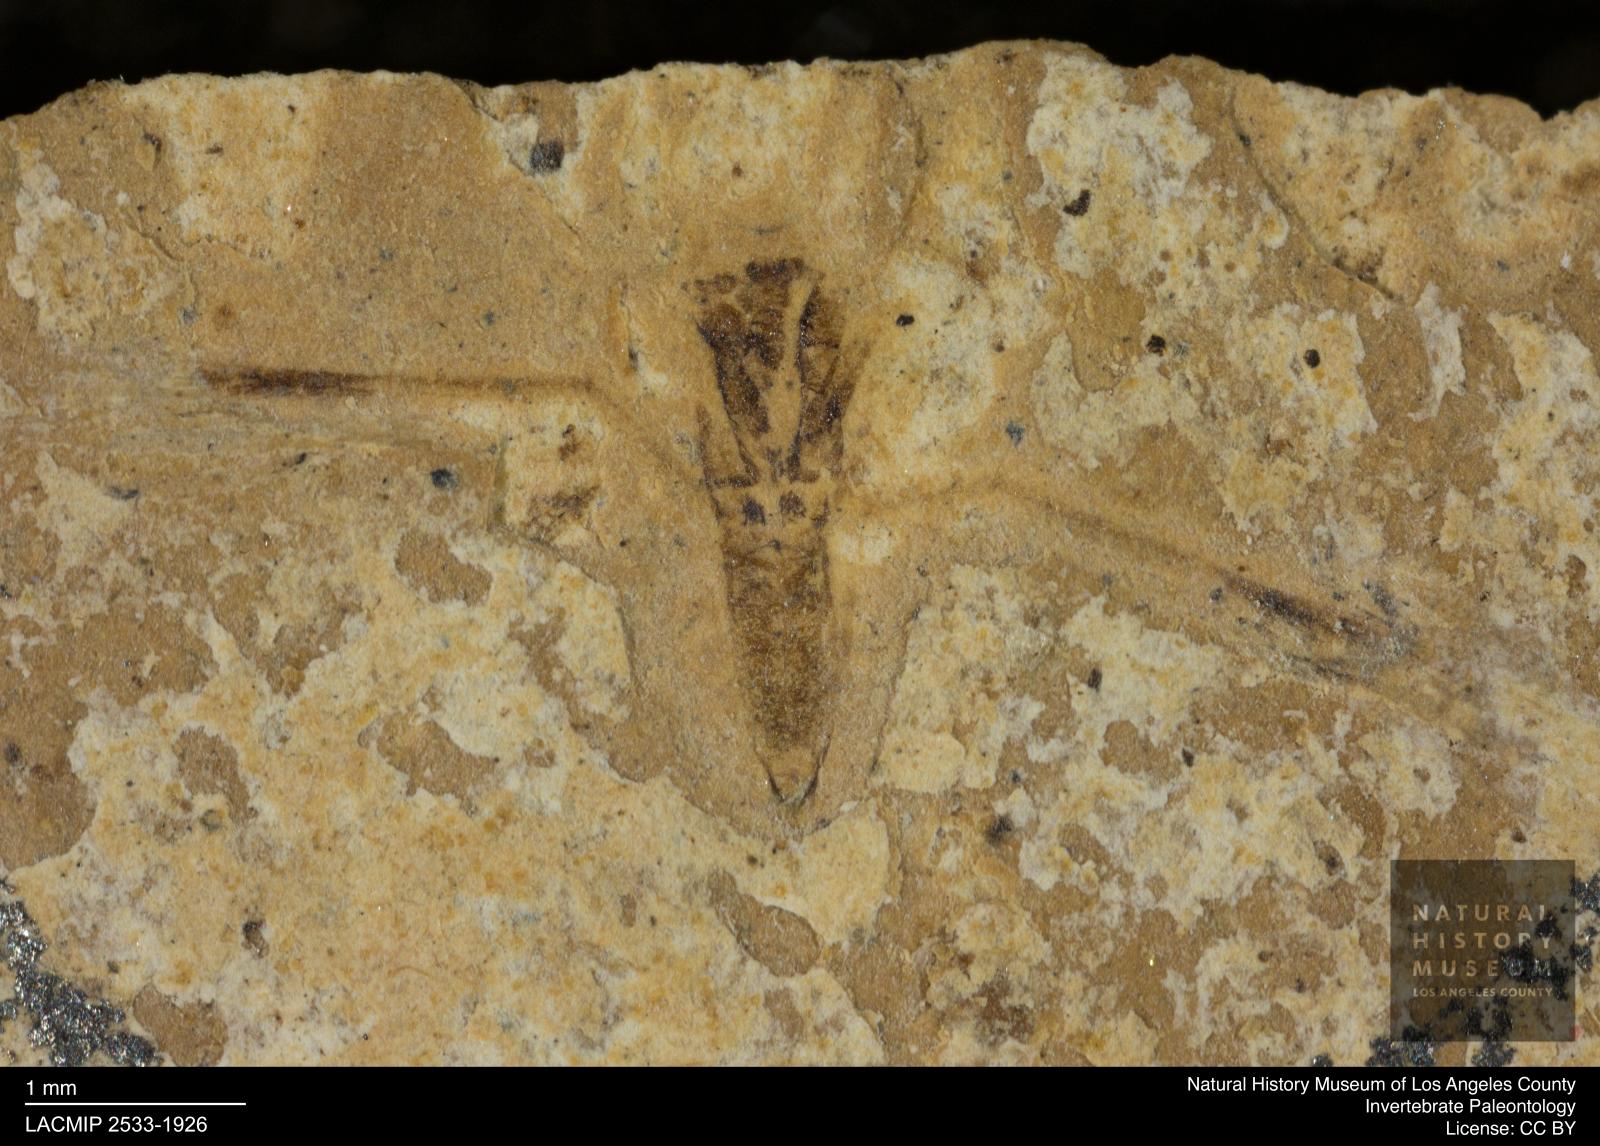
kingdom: Animalia
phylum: Arthropoda
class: Insecta
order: Hemiptera
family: Notonectidae
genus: Notonecta
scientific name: Notonecta
